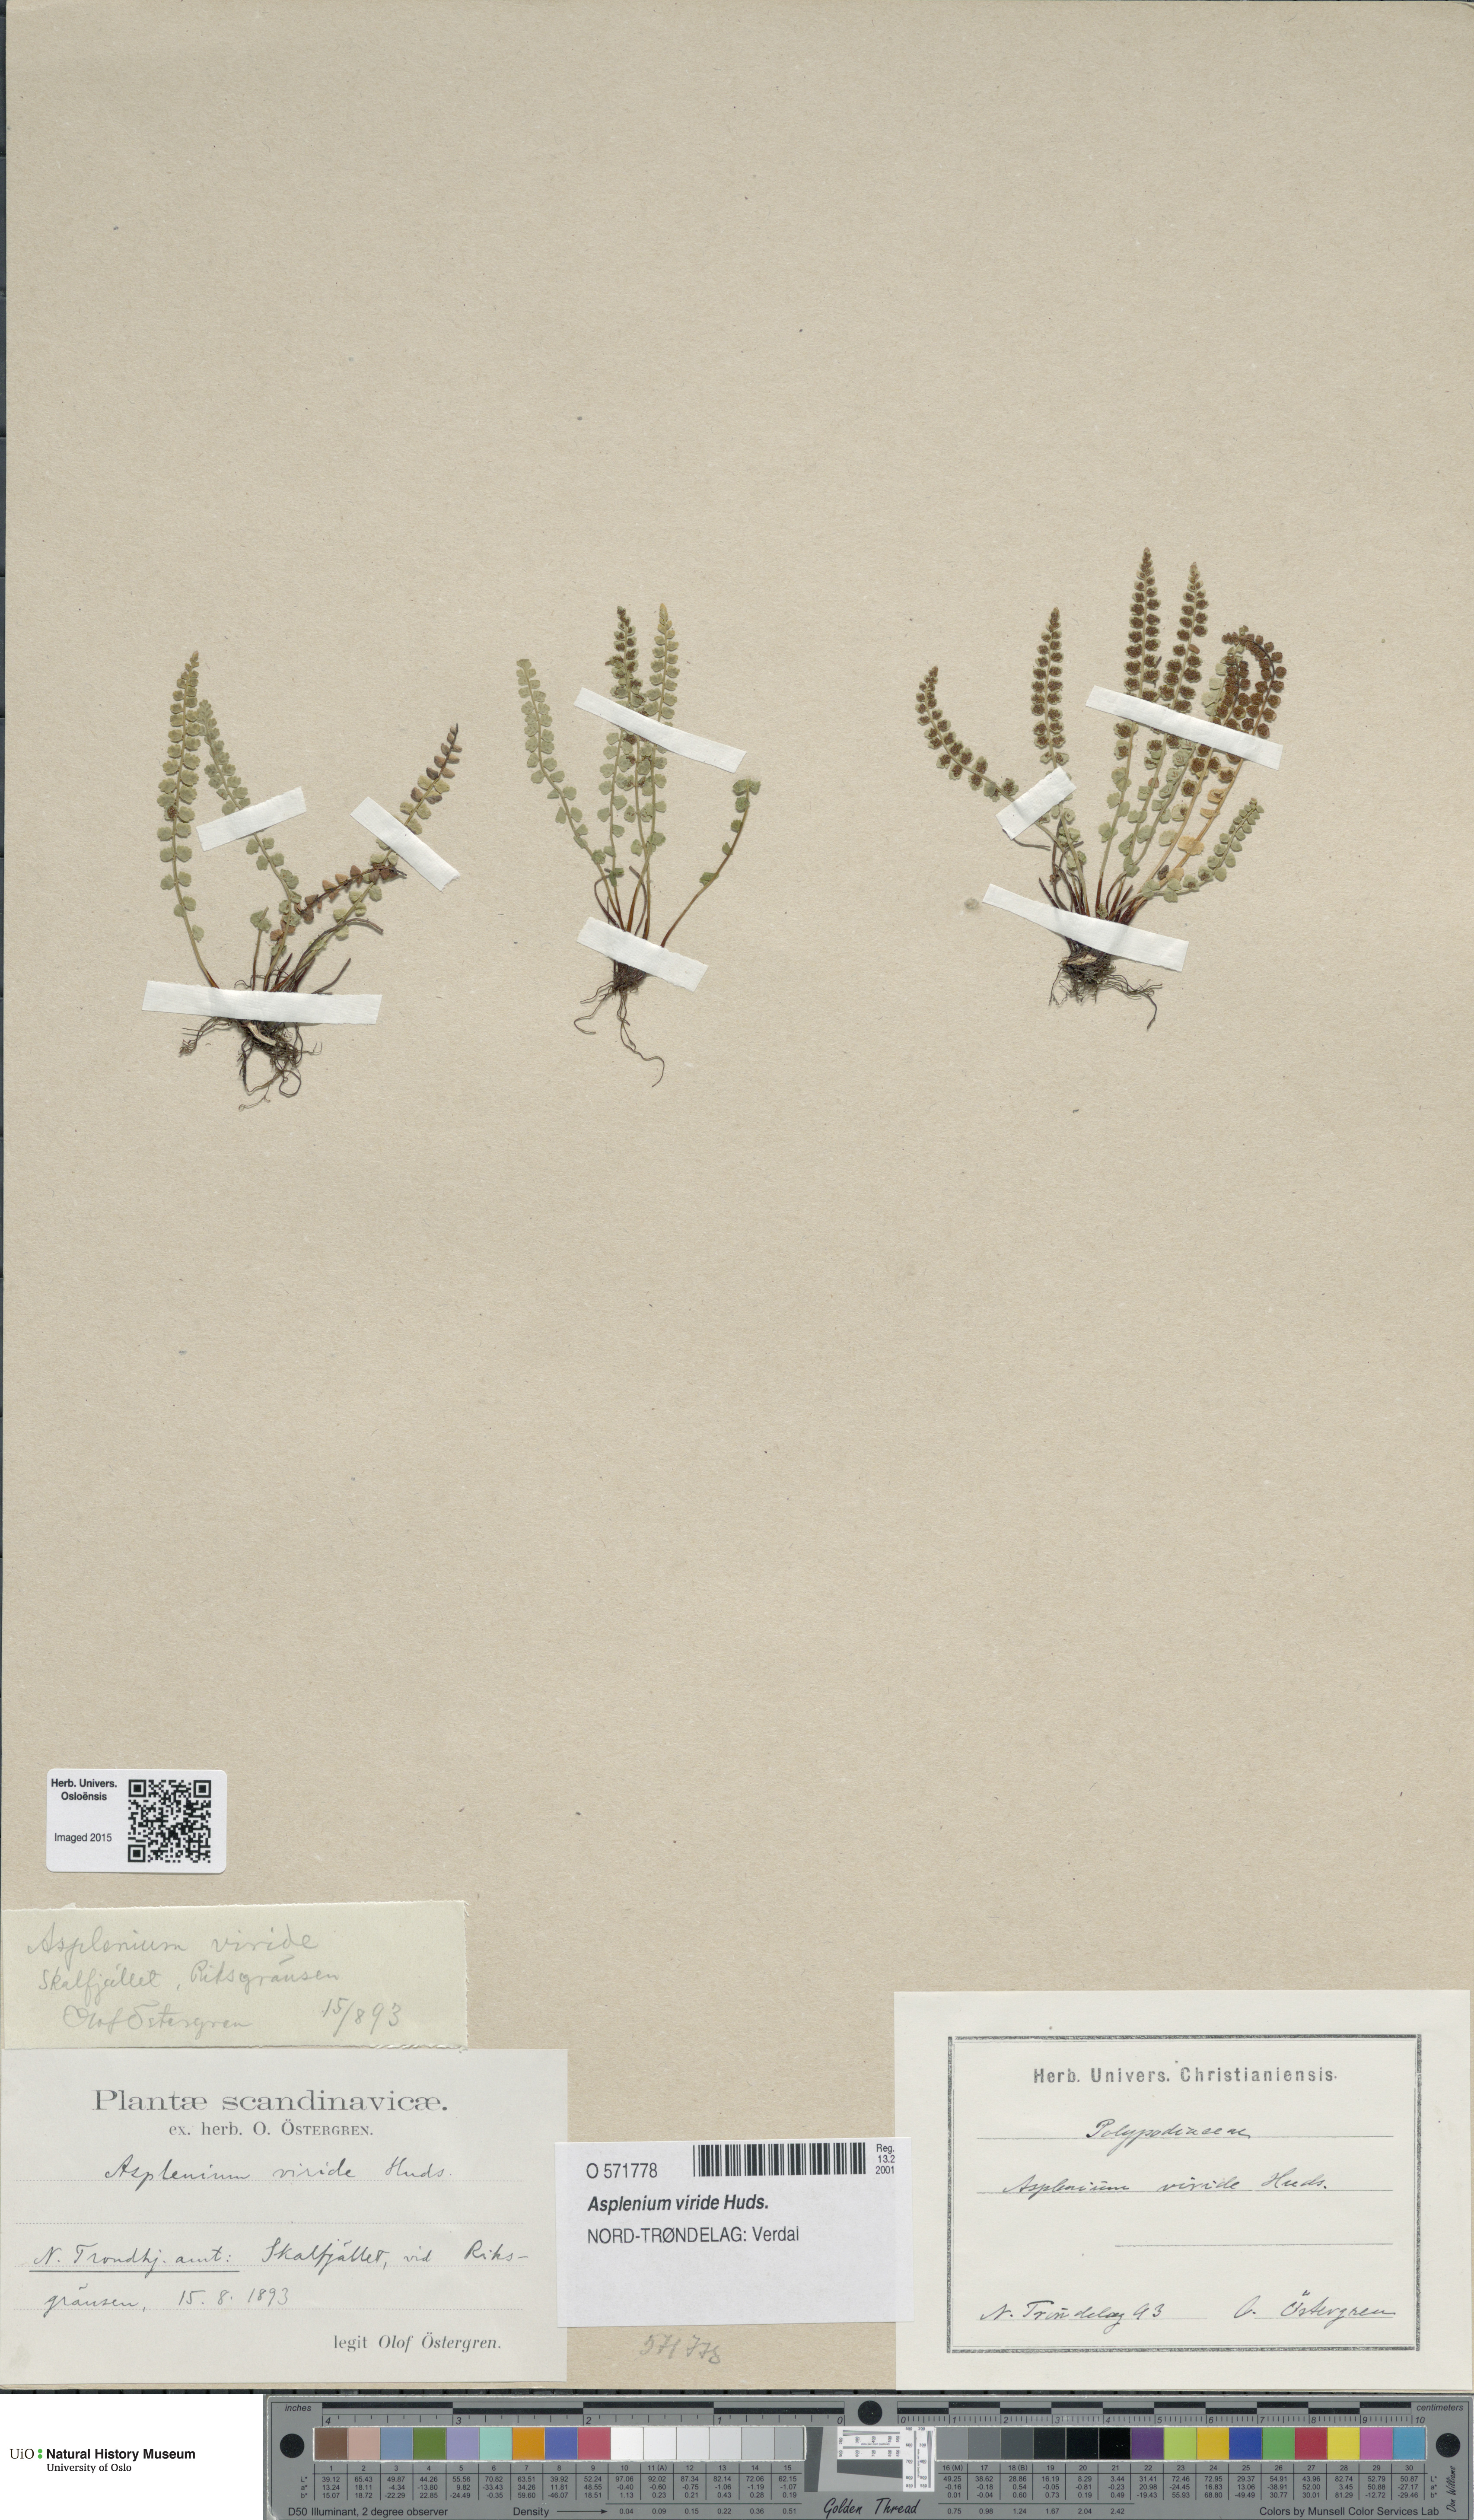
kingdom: Plantae
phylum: Tracheophyta
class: Polypodiopsida
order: Polypodiales
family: Aspleniaceae
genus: Asplenium
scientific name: Asplenium viride
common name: Green spleenwort
